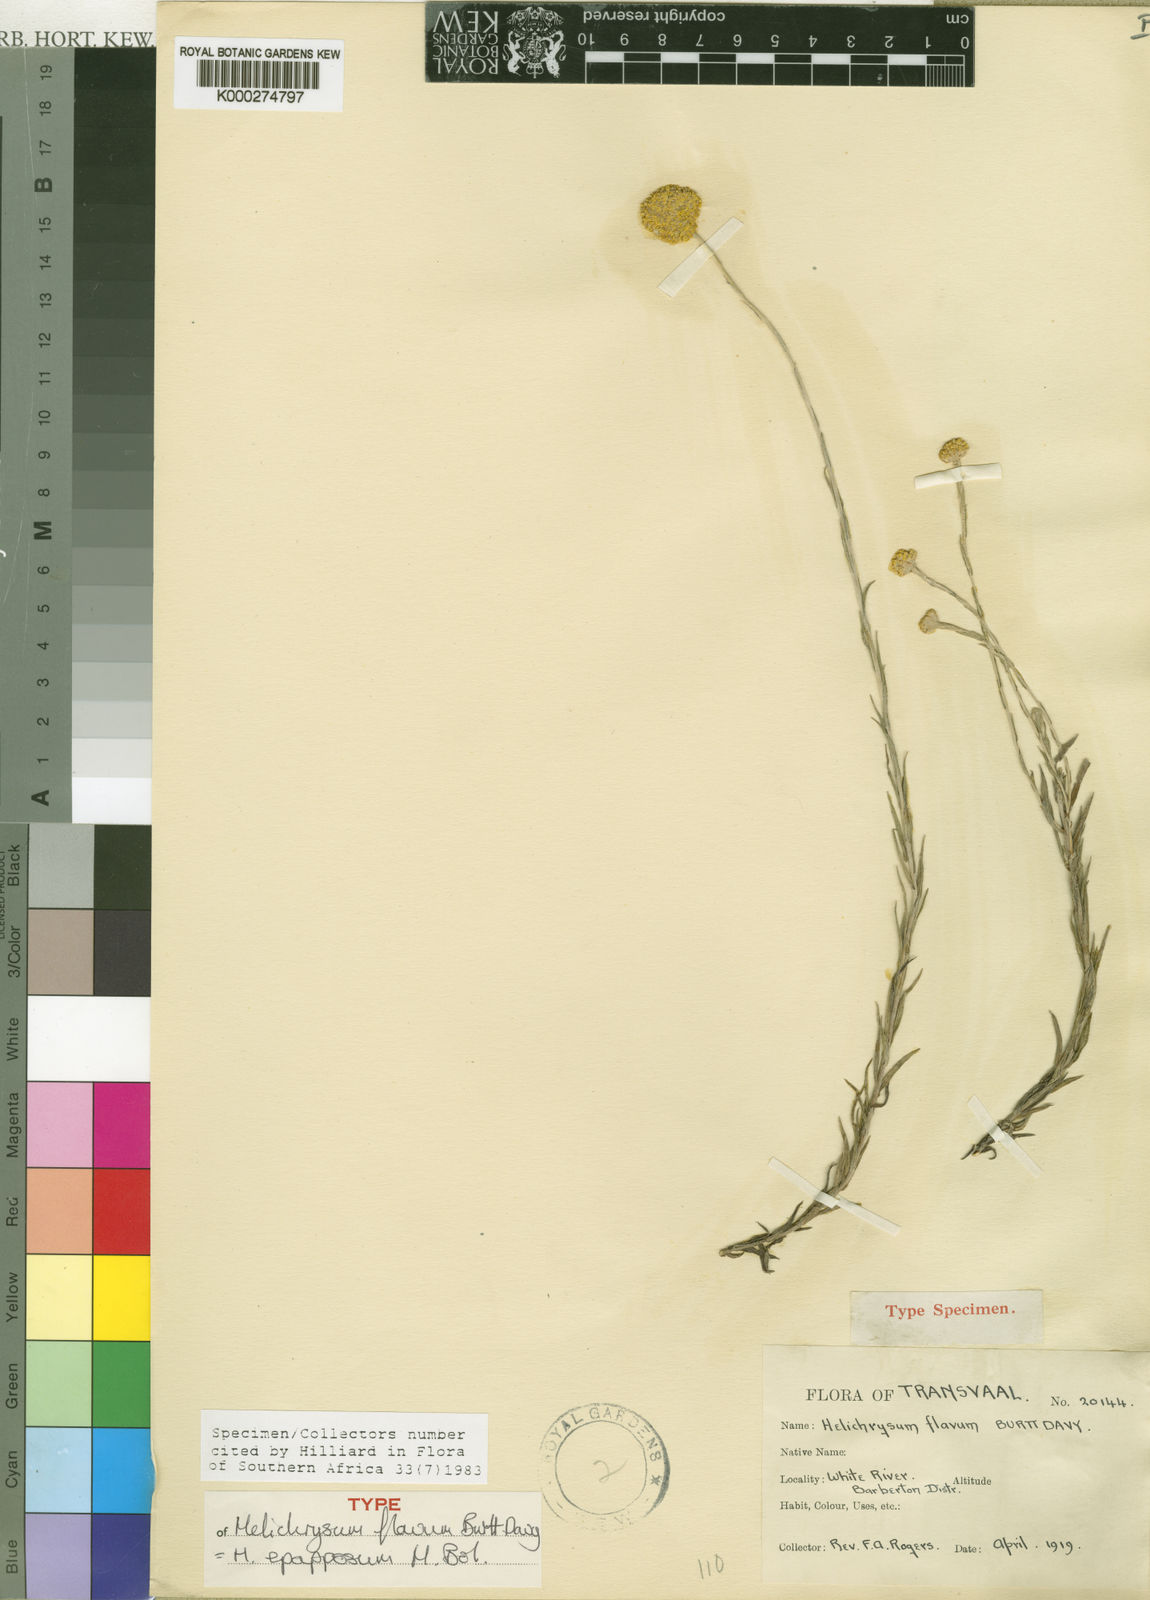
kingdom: Plantae
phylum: Tracheophyta
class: Magnoliopsida
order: Asterales
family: Asteraceae
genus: Helichrysum
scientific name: Helichrysum
